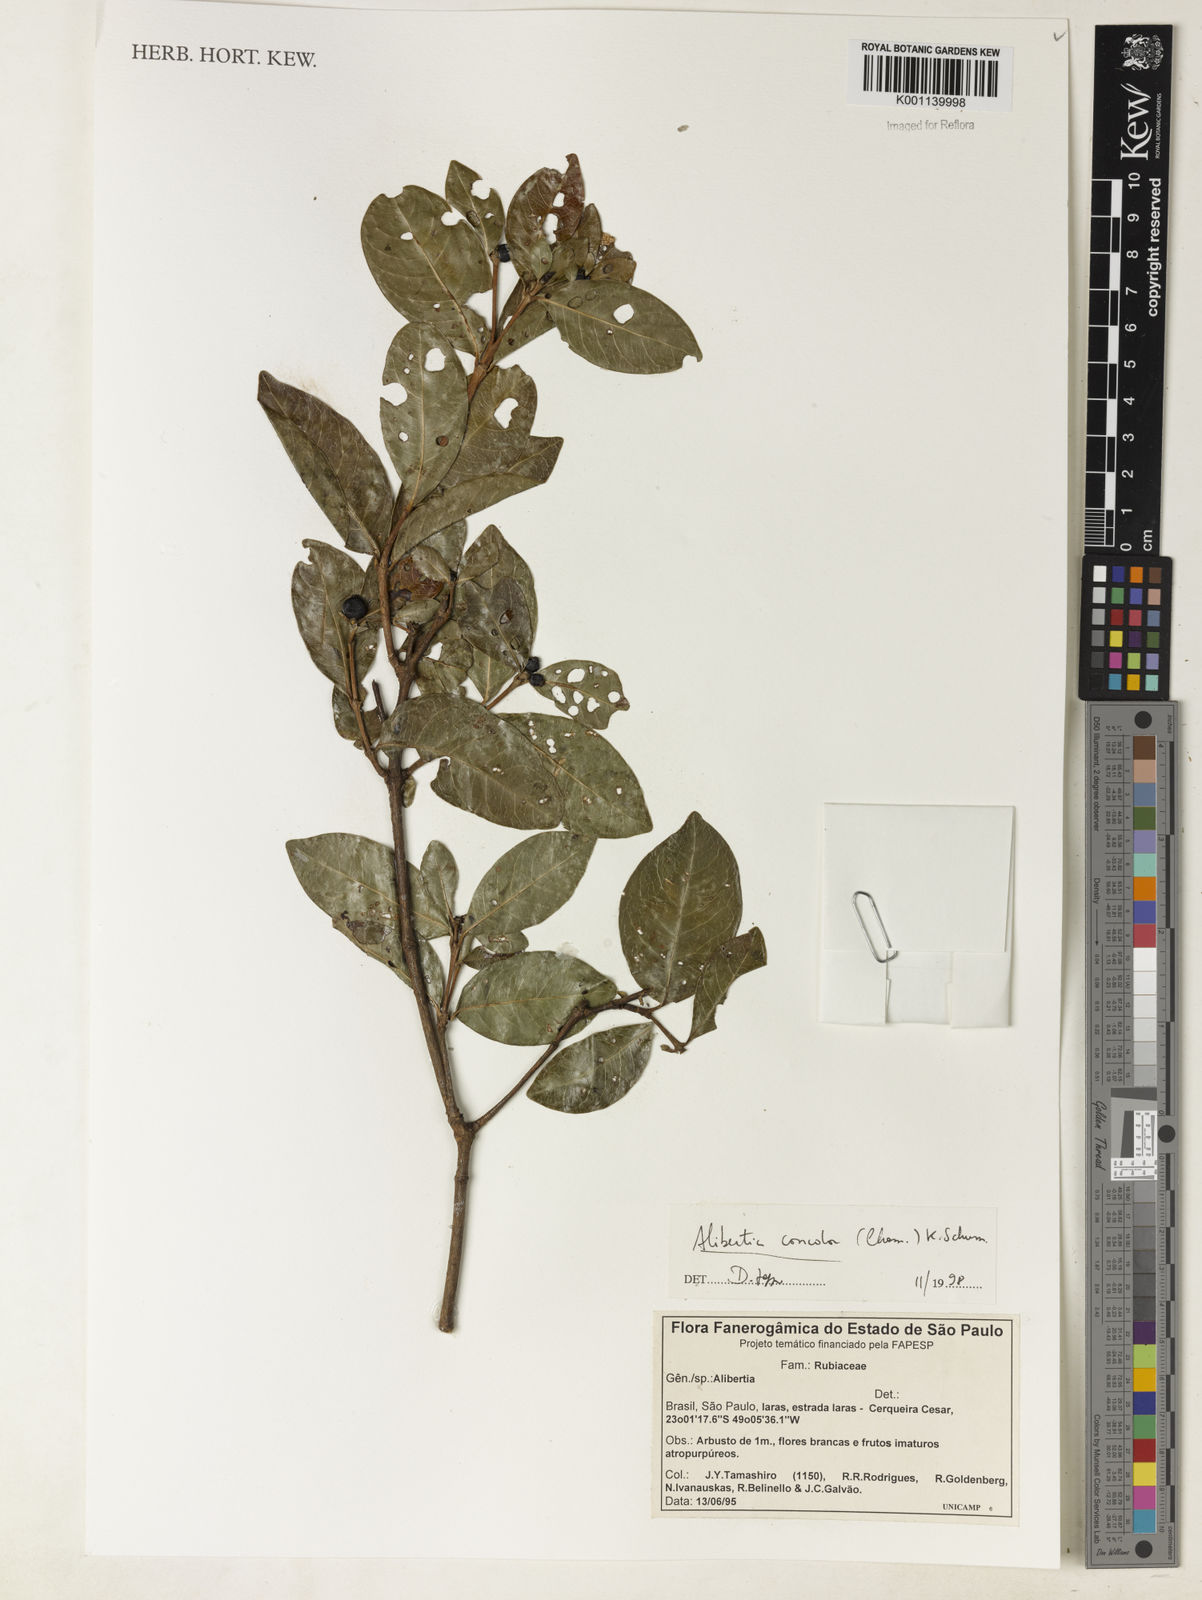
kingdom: Plantae
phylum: Tracheophyta
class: Magnoliopsida
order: Gentianales
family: Rubiaceae
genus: Cordiera
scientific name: Cordiera concolor
